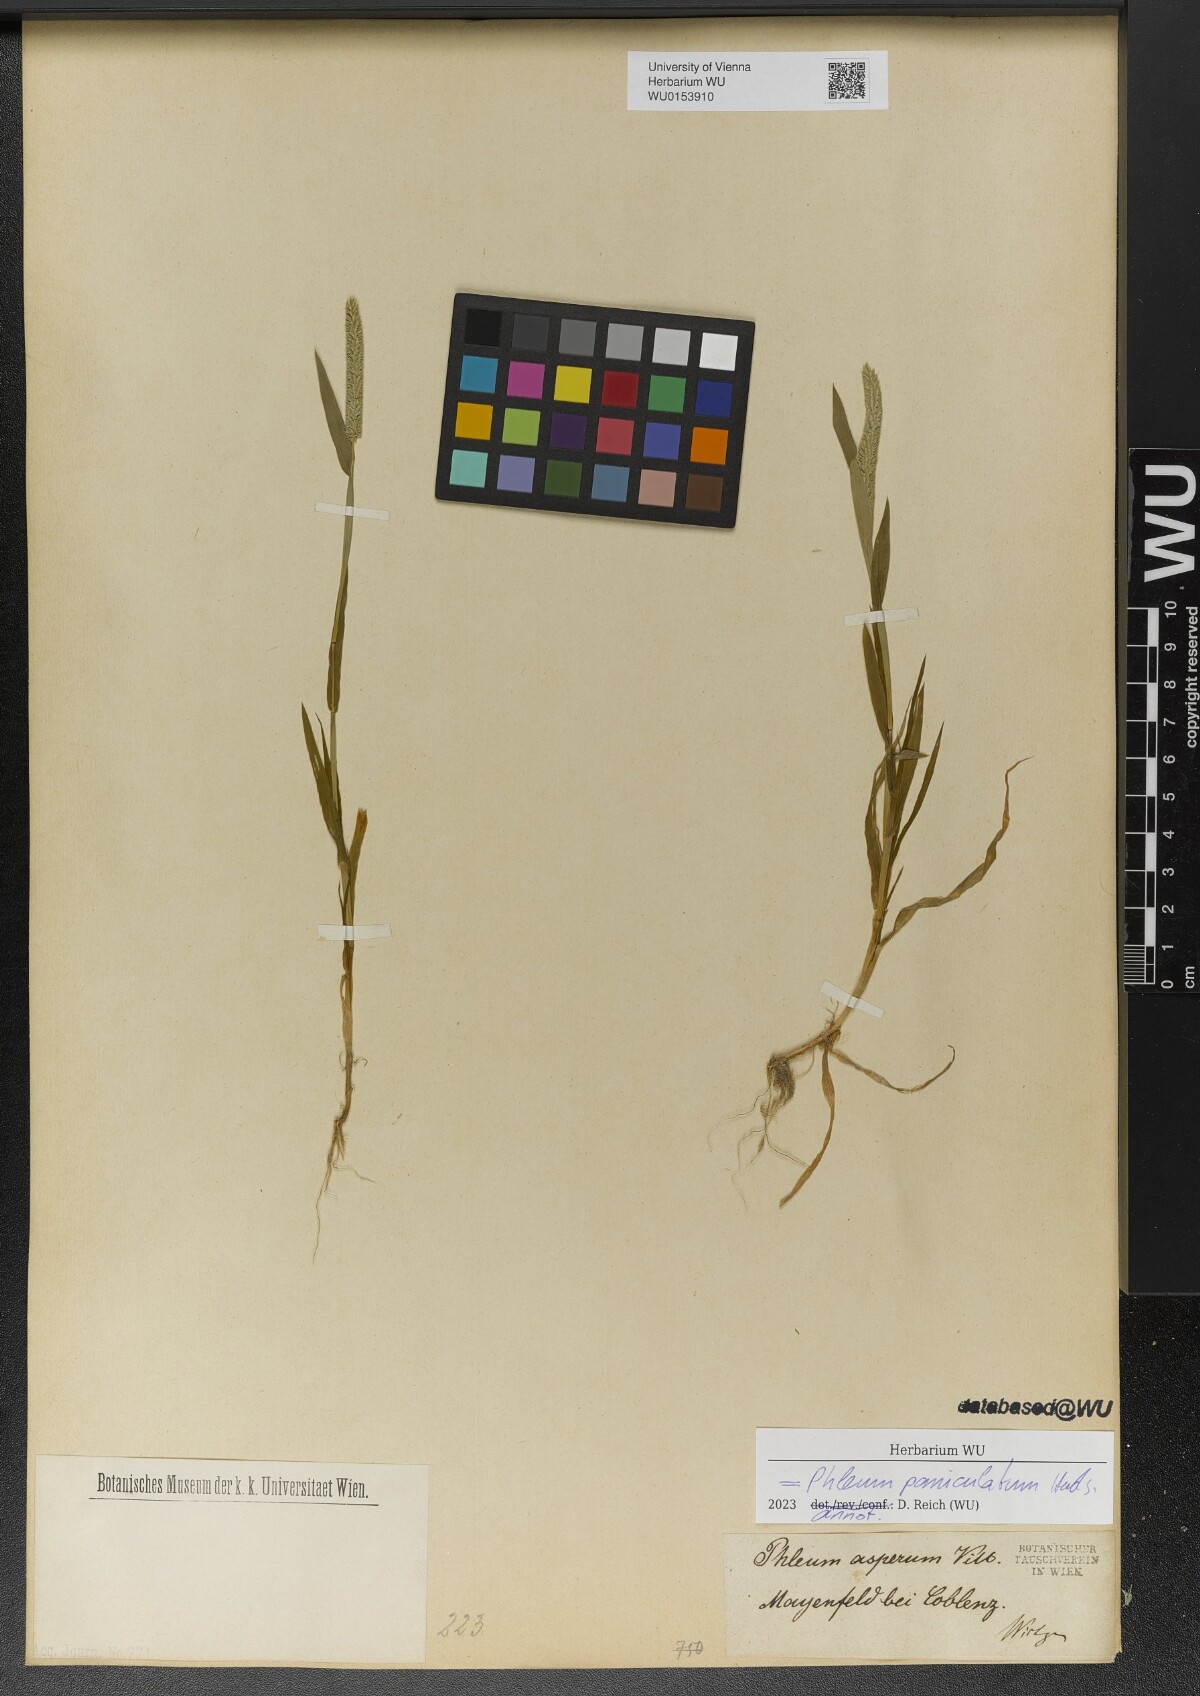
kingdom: Plantae
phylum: Tracheophyta
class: Liliopsida
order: Poales
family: Poaceae
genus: Phleum
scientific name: Phleum paniculatum
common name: British timothy
